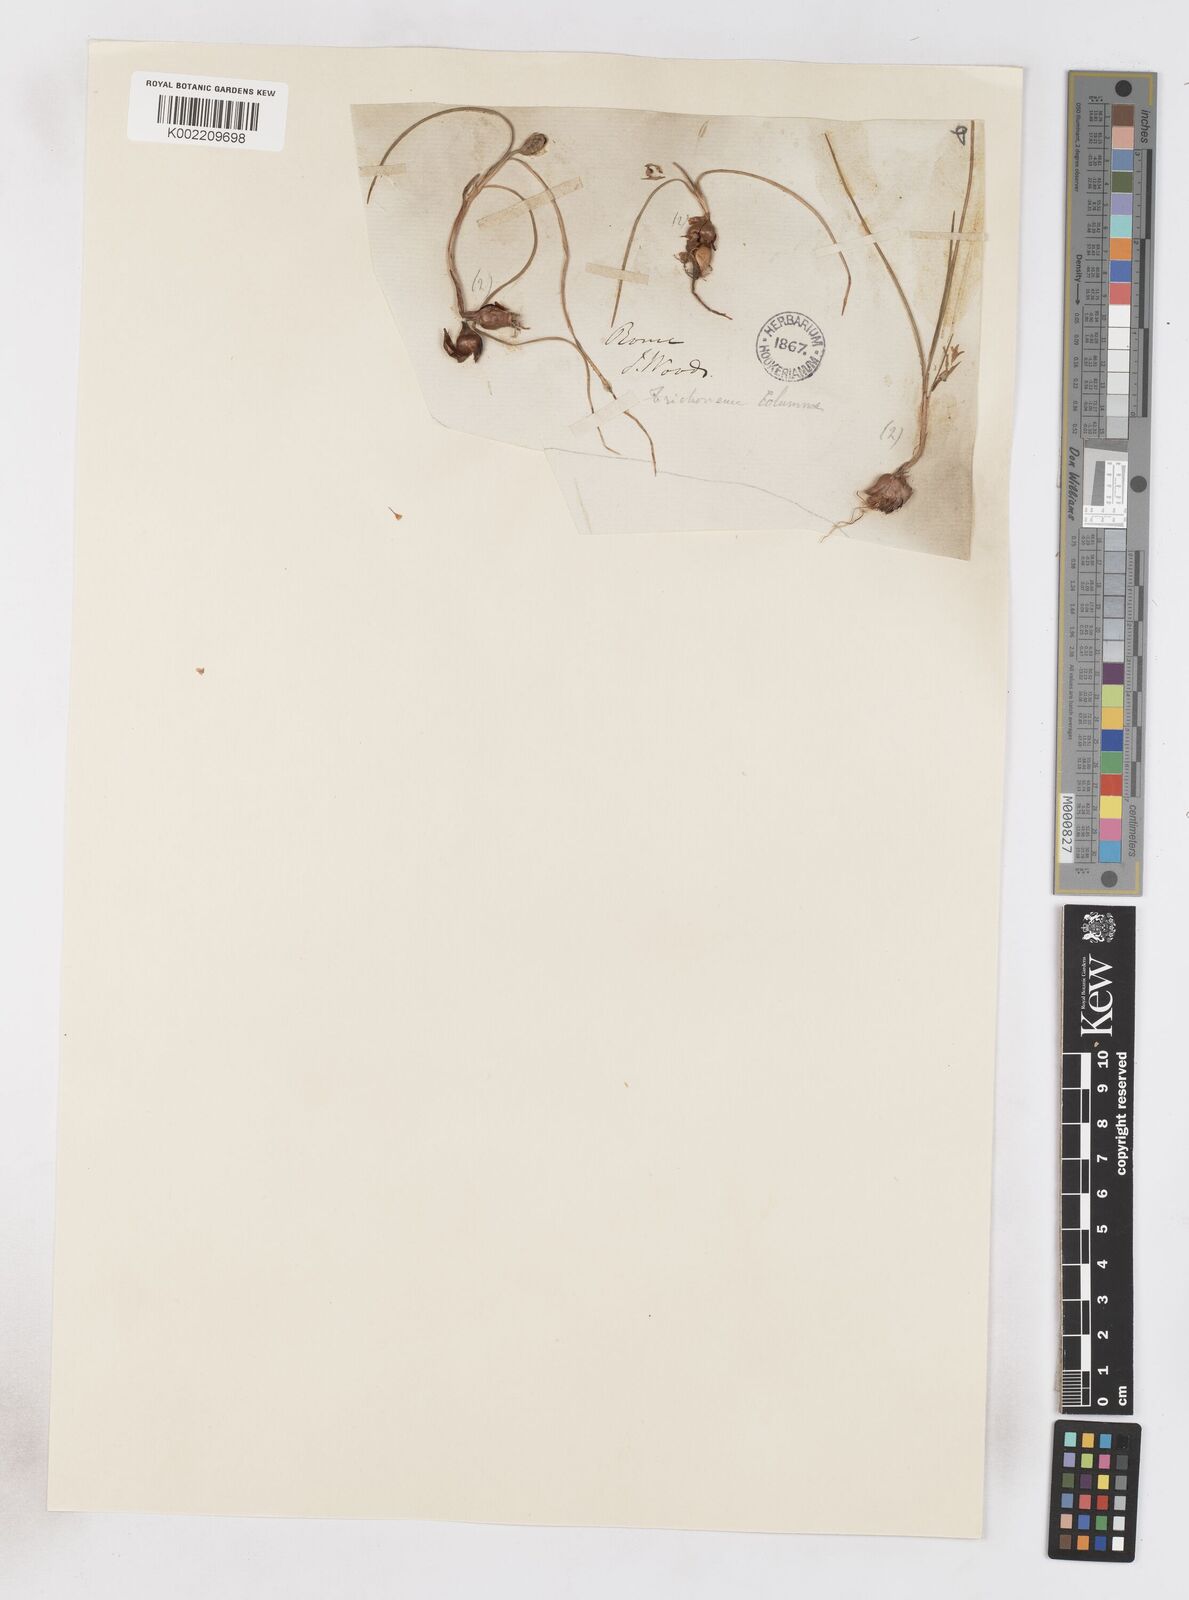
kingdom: Plantae
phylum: Tracheophyta
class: Liliopsida
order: Asparagales
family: Iridaceae
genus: Romulea
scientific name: Romulea ramiflora
